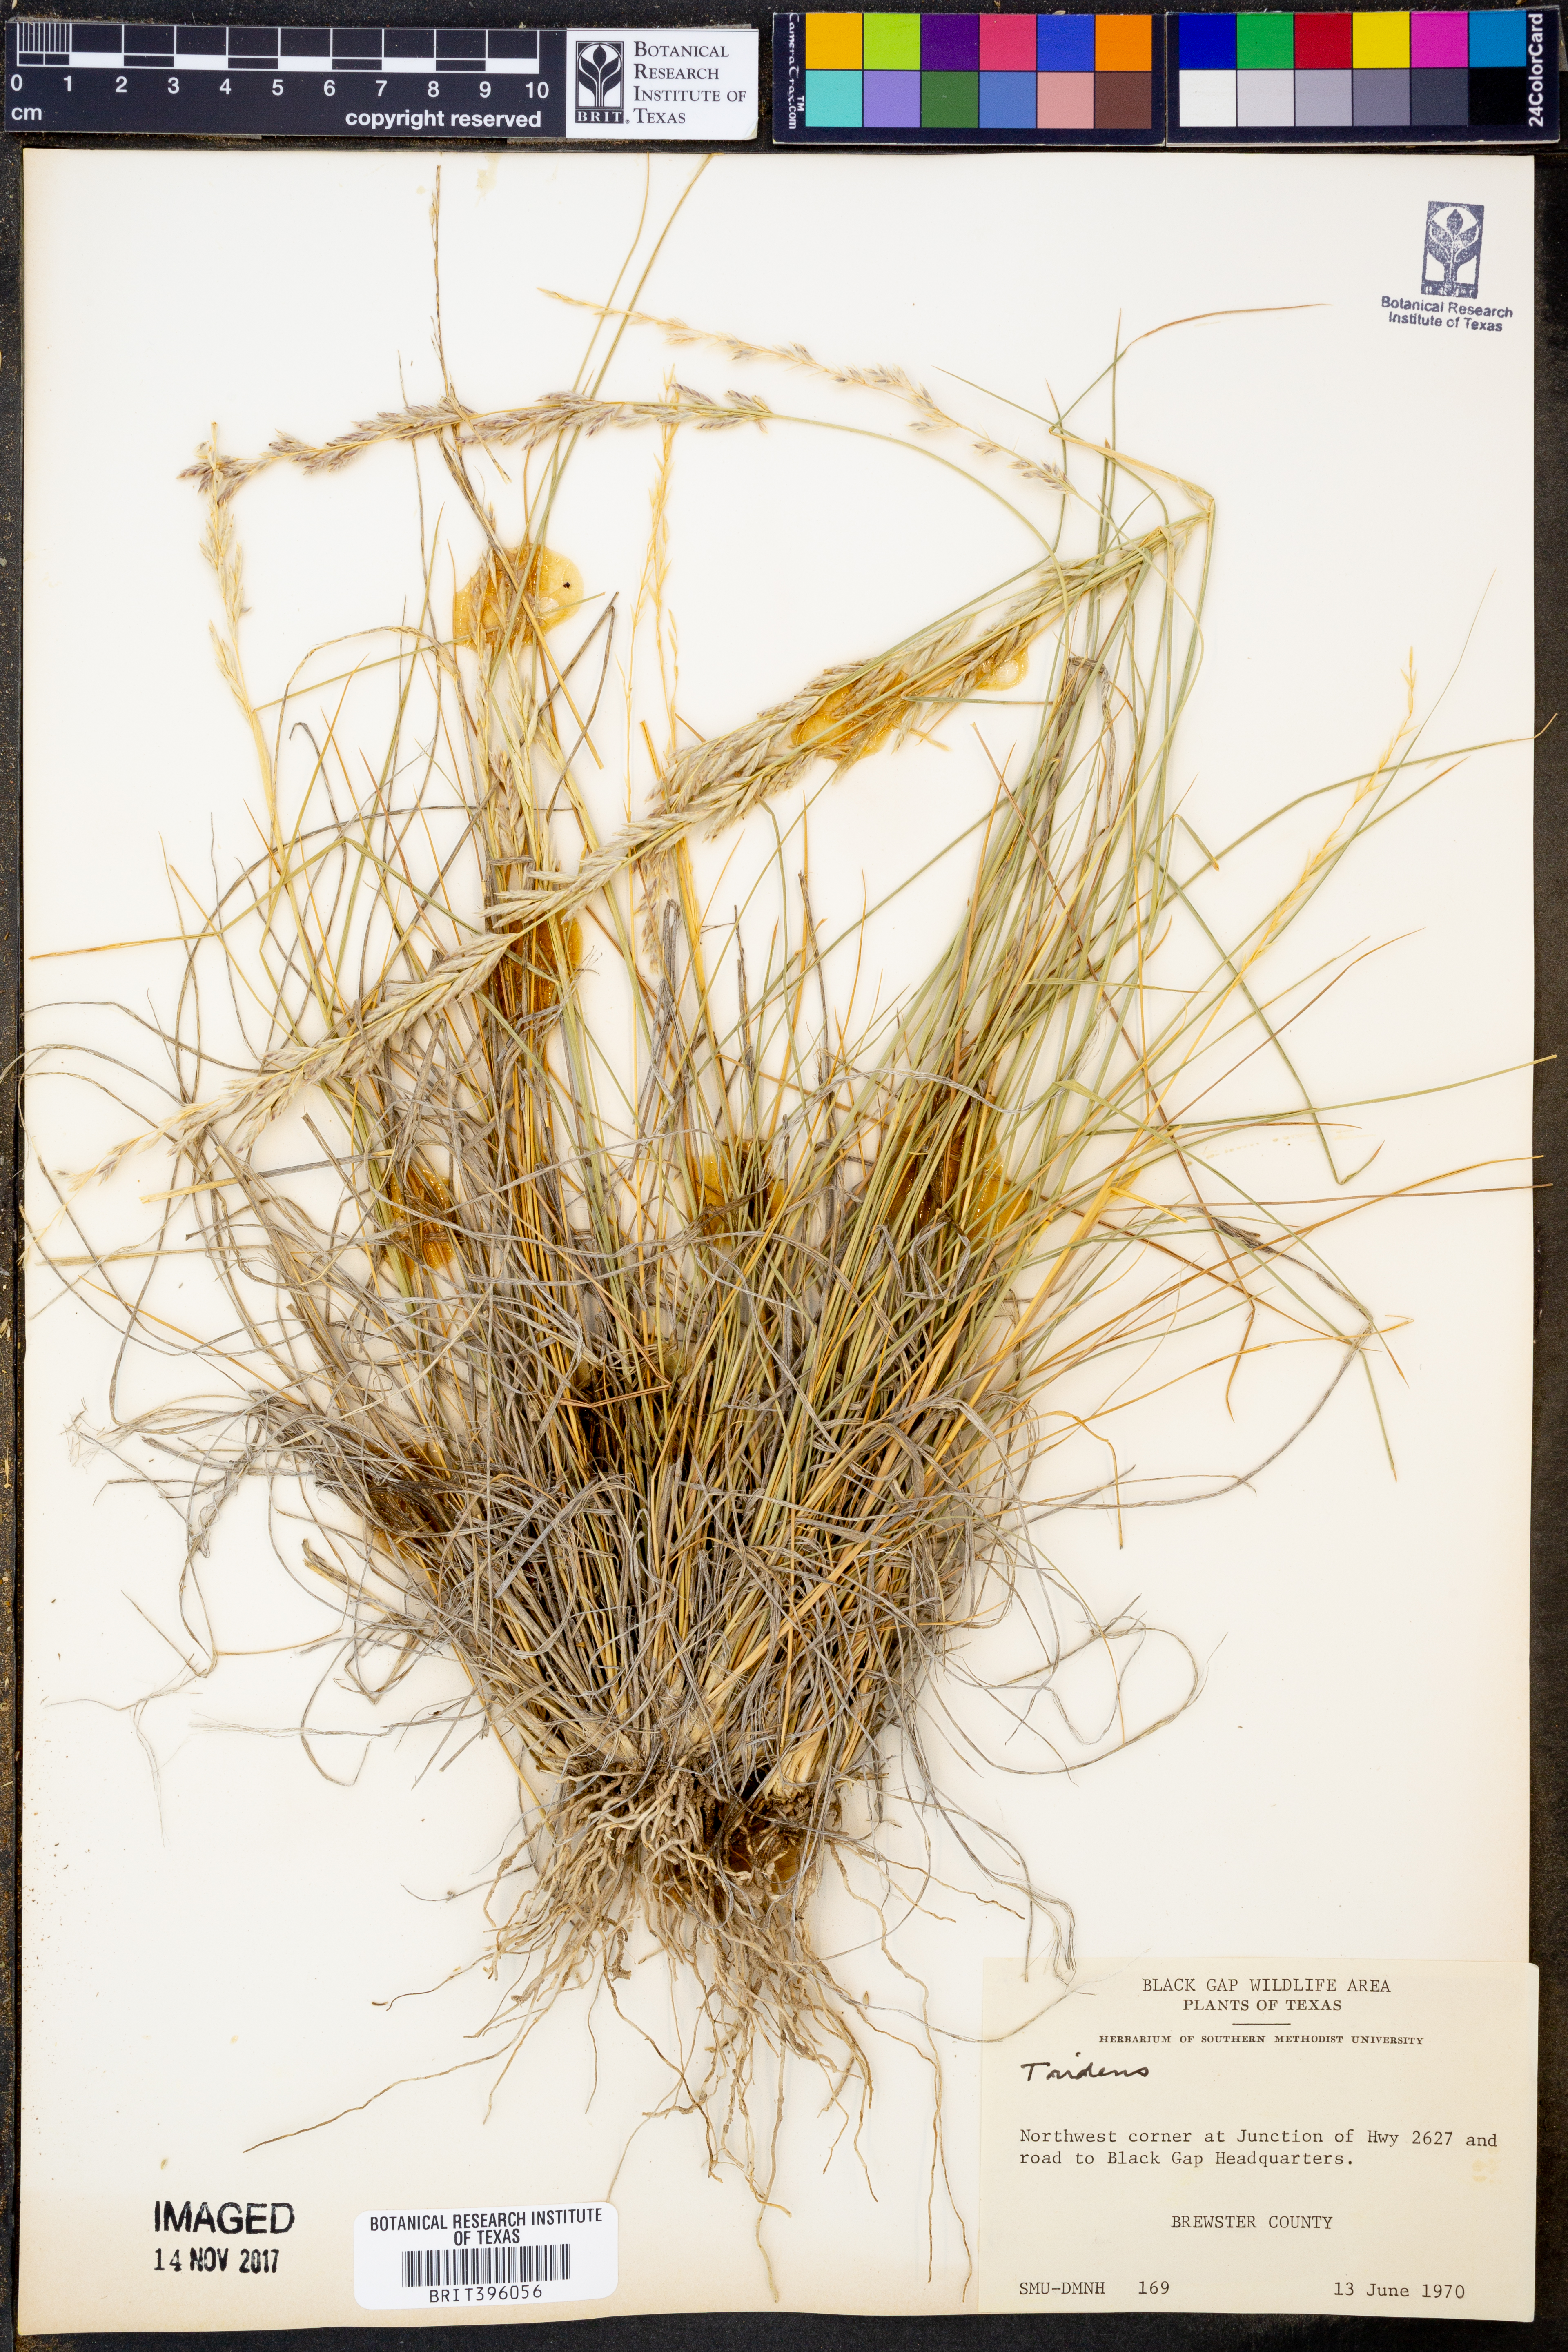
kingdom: Plantae
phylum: Tracheophyta
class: Liliopsida
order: Poales
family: Poaceae
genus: Tridens
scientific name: Tridens
